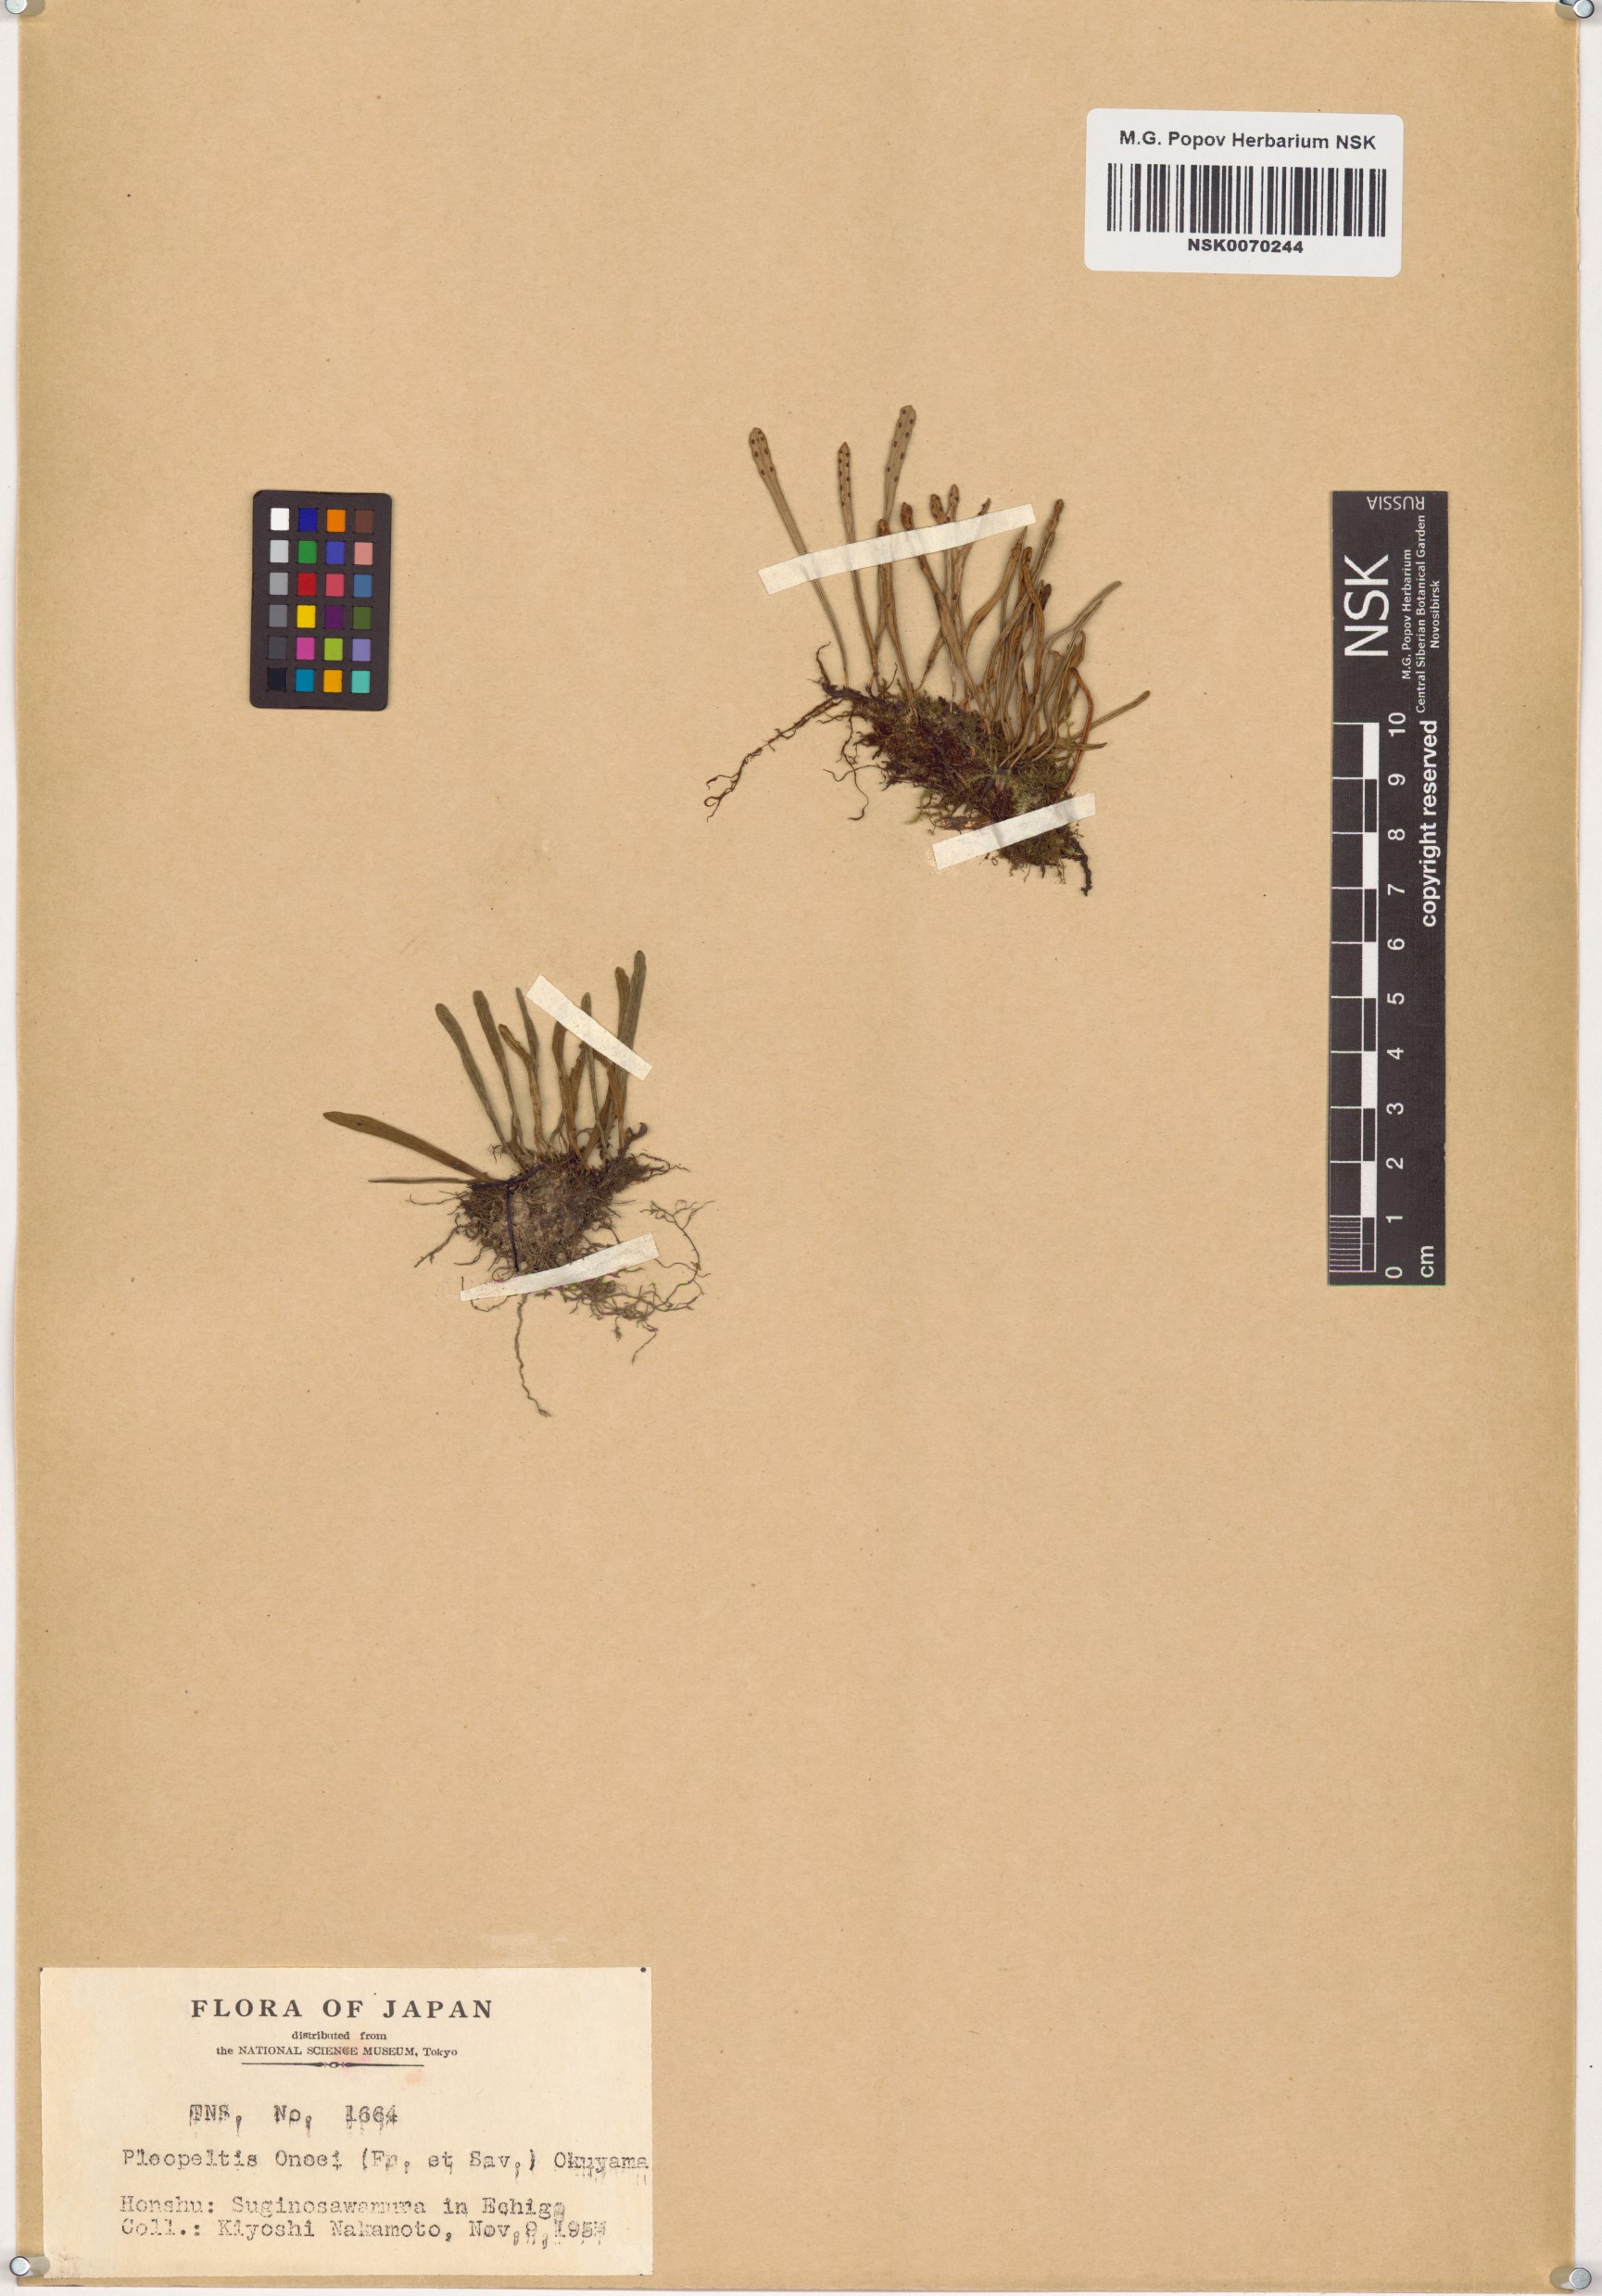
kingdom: Plantae
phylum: Tracheophyta
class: Polypodiopsida
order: Polypodiales
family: Polypodiaceae
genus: Lepisorus
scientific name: Lepisorus onoei
